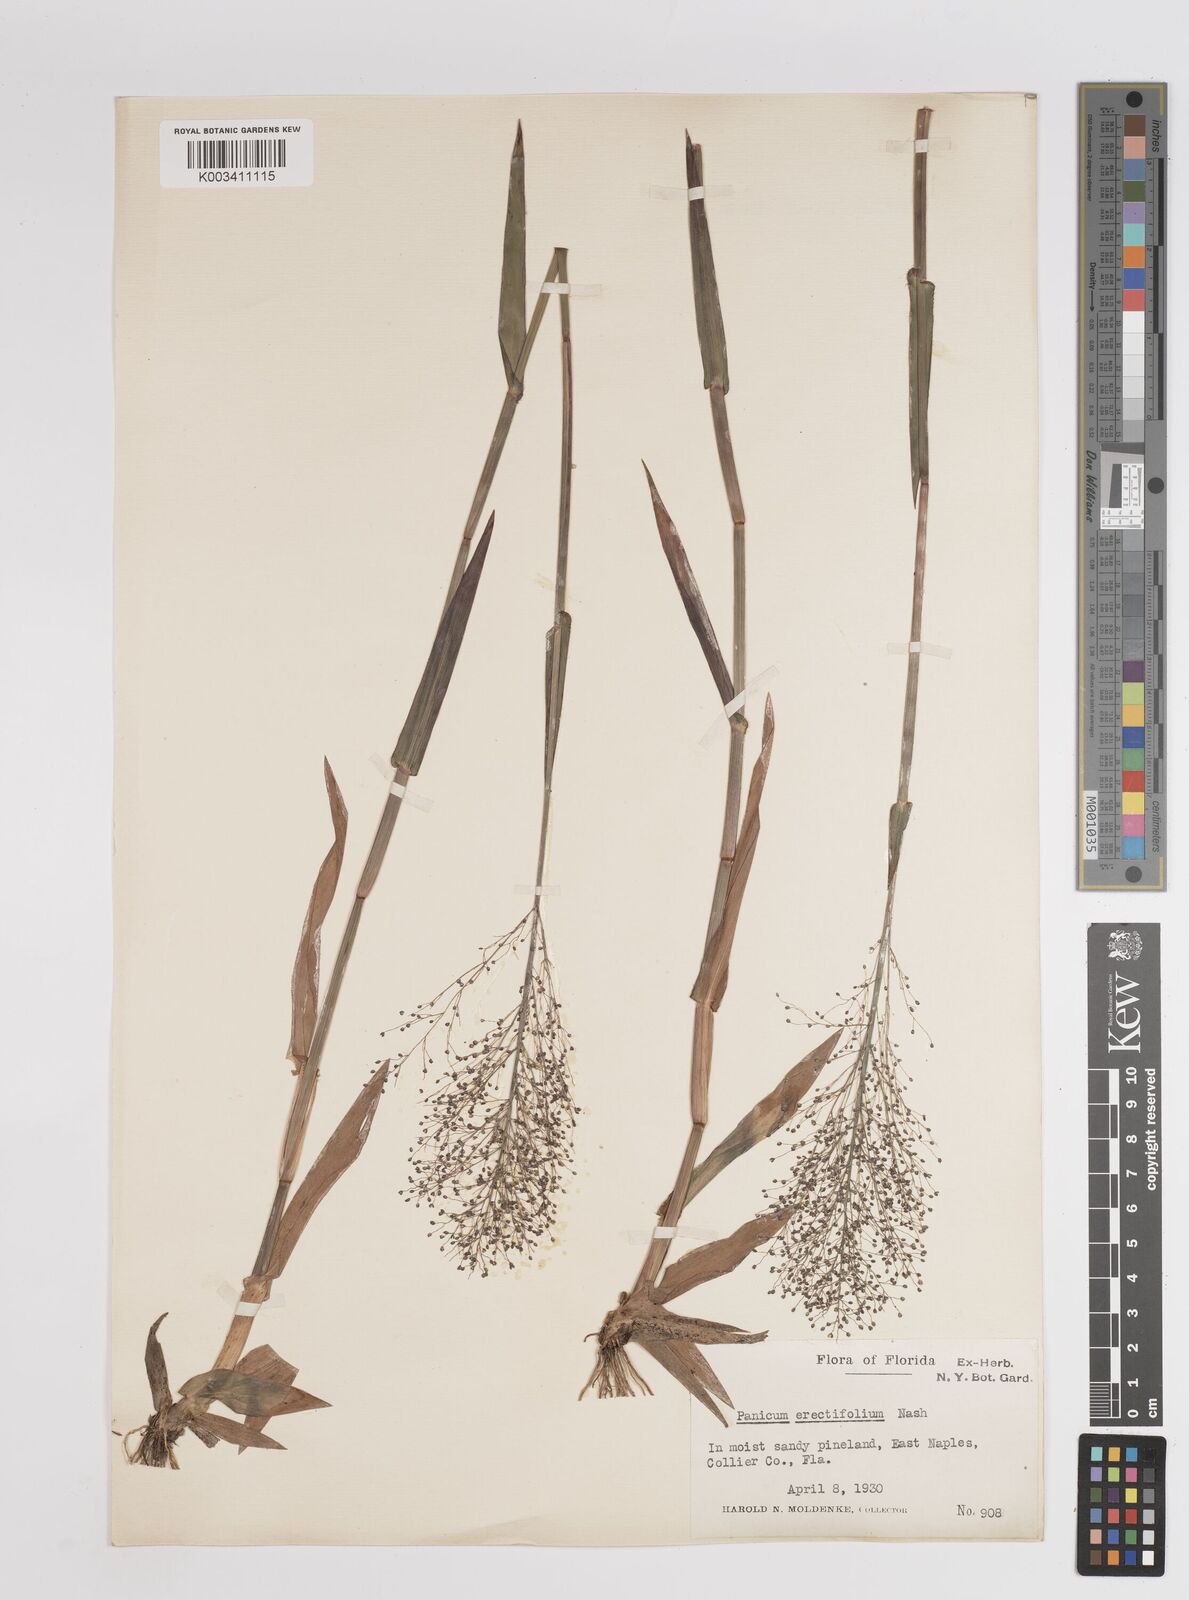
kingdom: Plantae
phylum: Tracheophyta
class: Liliopsida
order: Poales
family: Poaceae
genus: Dichanthelium
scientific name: Dichanthelium erectifolium
